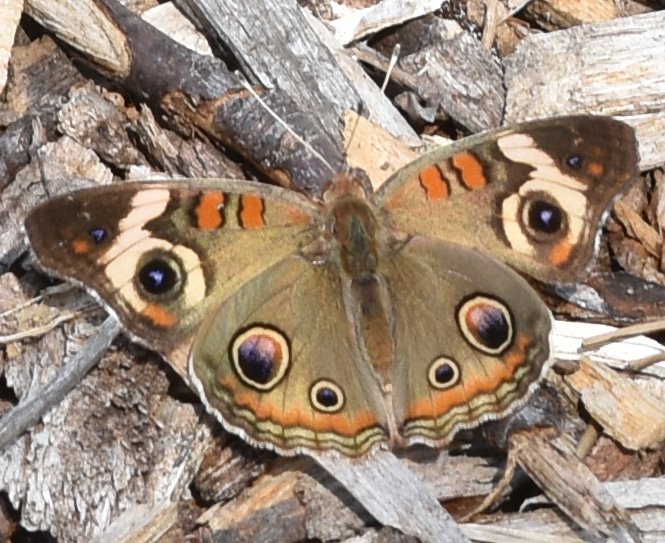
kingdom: Animalia
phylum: Arthropoda
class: Insecta
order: Lepidoptera
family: Nymphalidae
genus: Junonia
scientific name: Junonia coenia
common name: Common Buckeye
